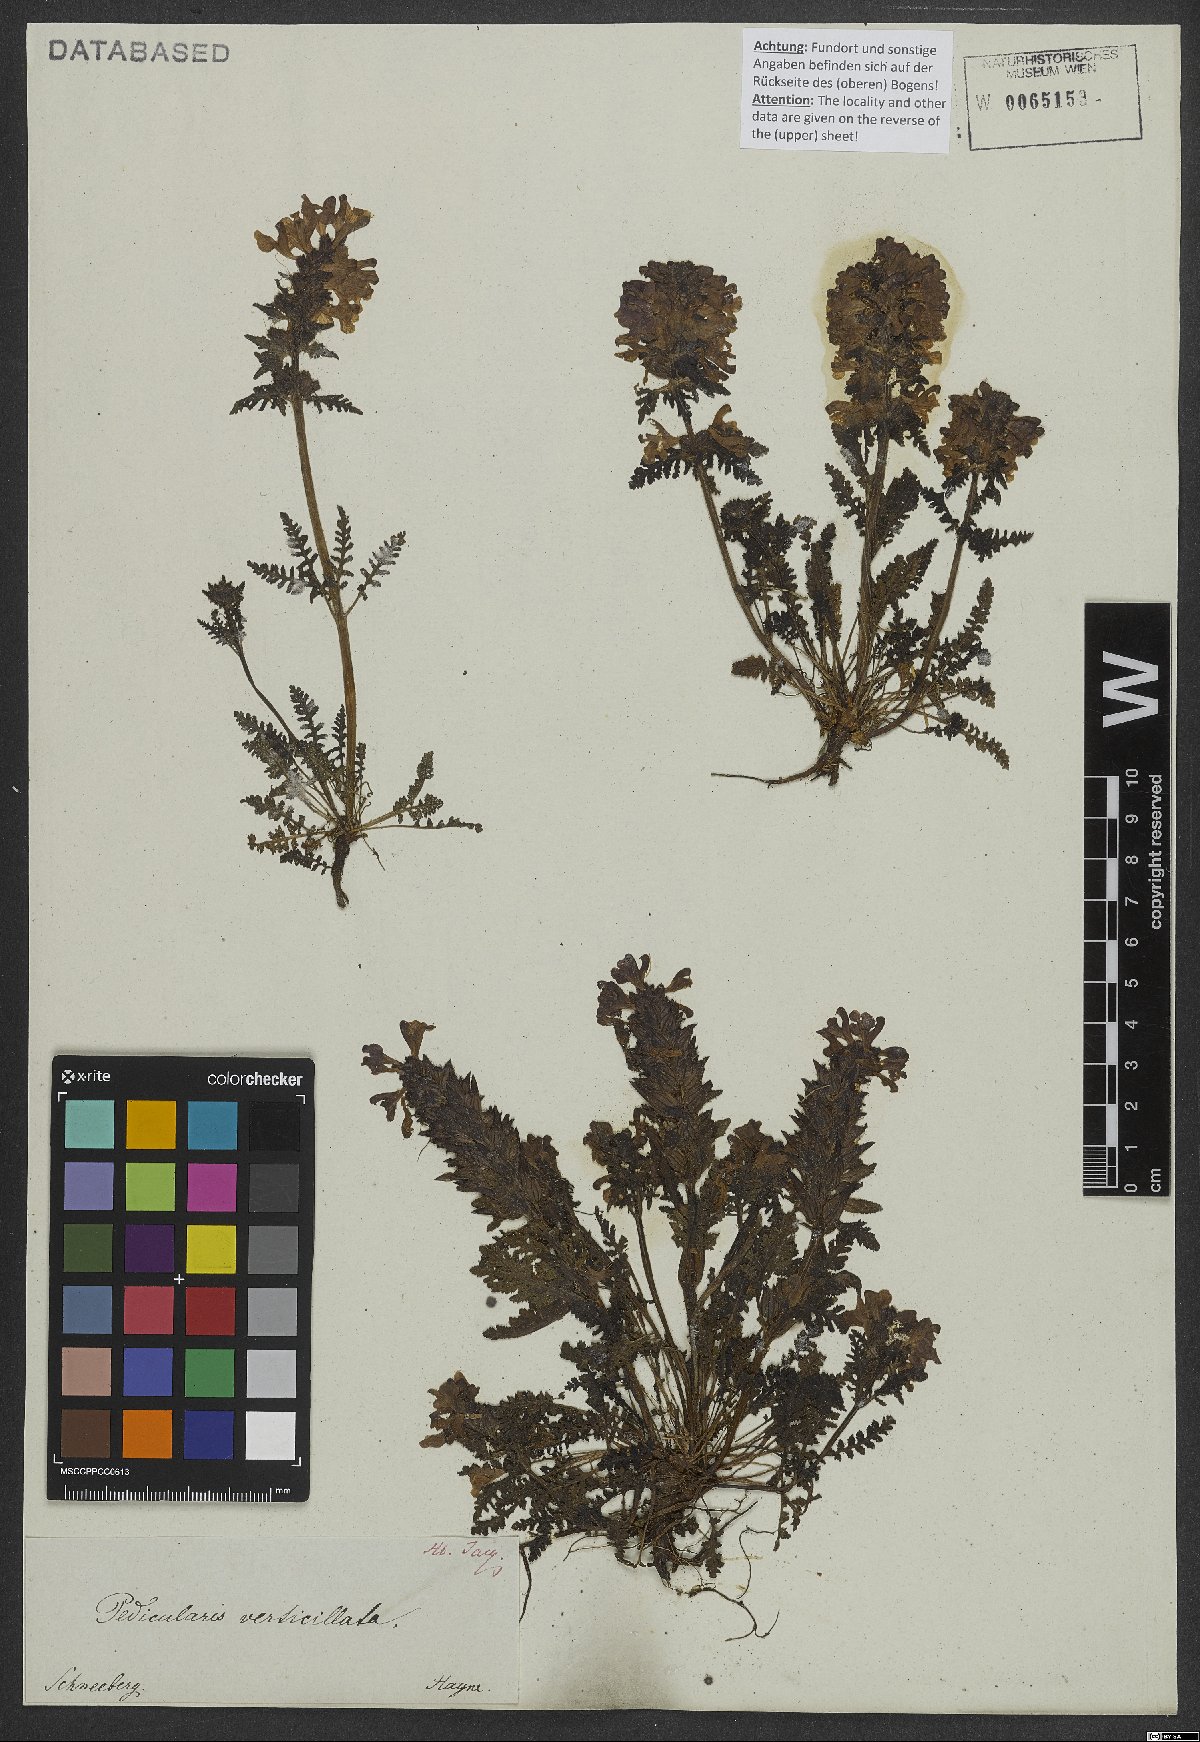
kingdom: Plantae
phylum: Tracheophyta
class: Magnoliopsida
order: Lamiales
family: Orobanchaceae
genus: Pedicularis
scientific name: Pedicularis verticillata
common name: Whorled lousewort
